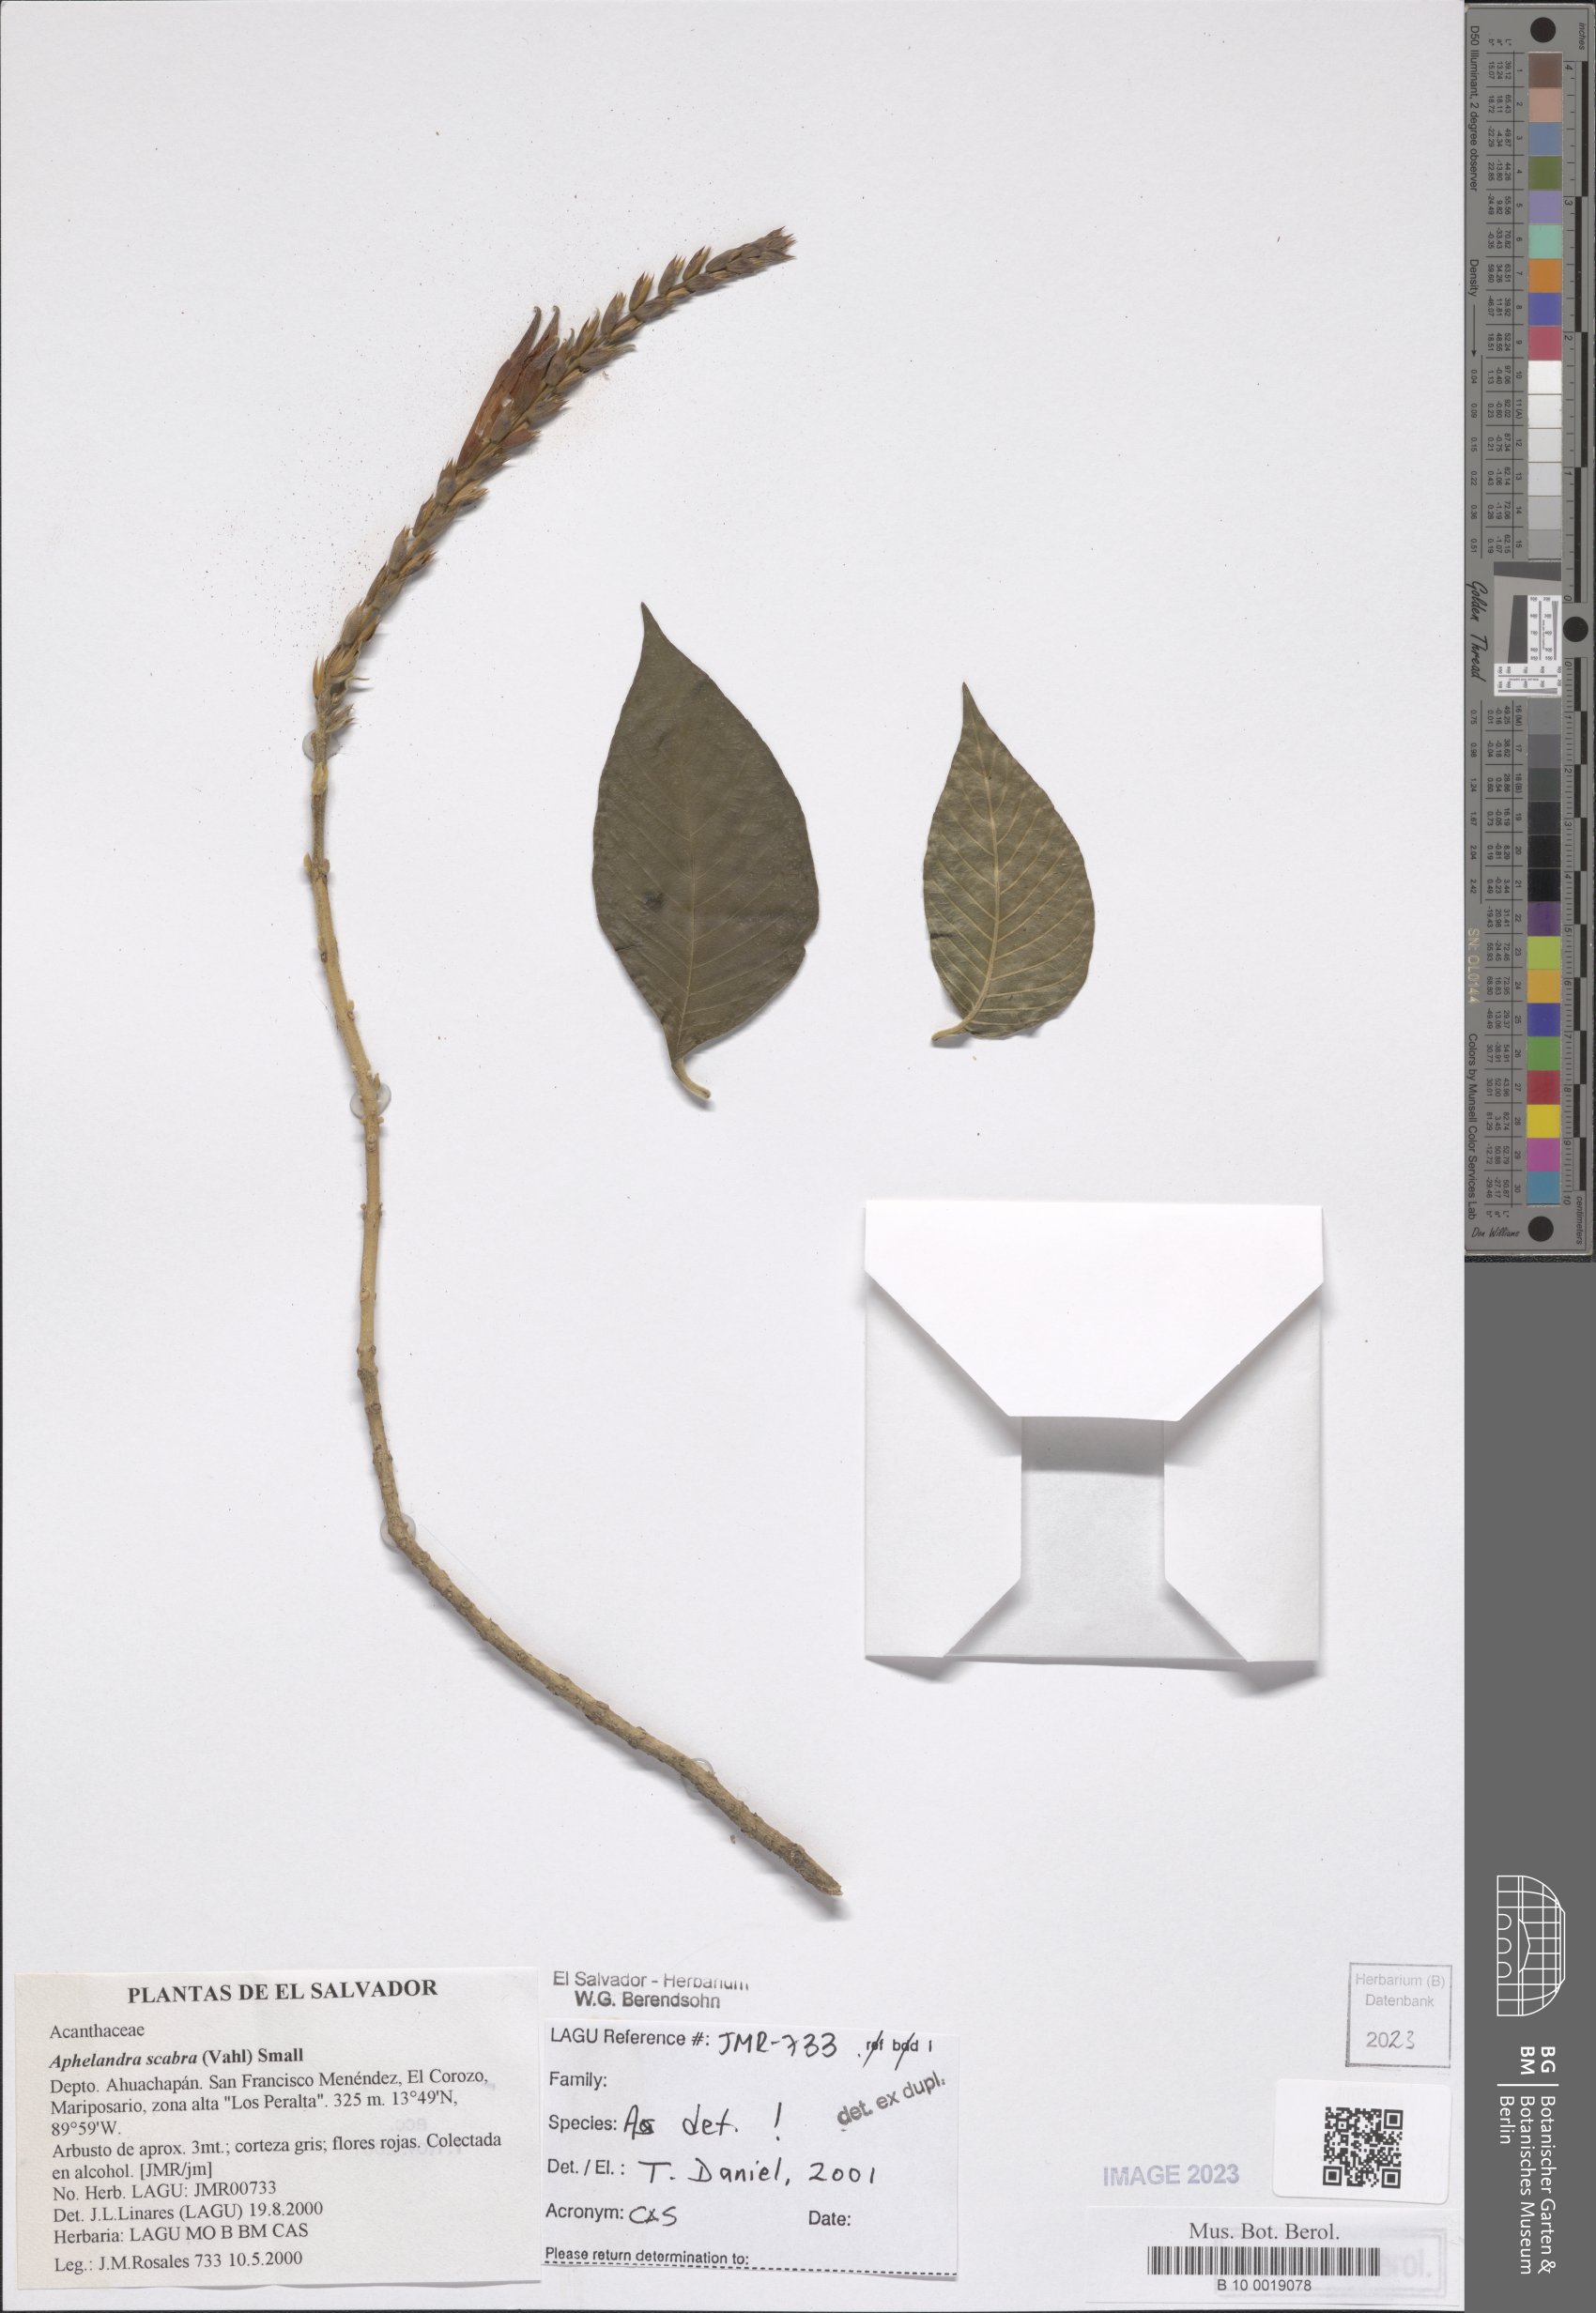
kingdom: Plantae
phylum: Tracheophyta
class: Magnoliopsida
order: Lamiales
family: Acanthaceae
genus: Aphelandra
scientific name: Aphelandra scabra
